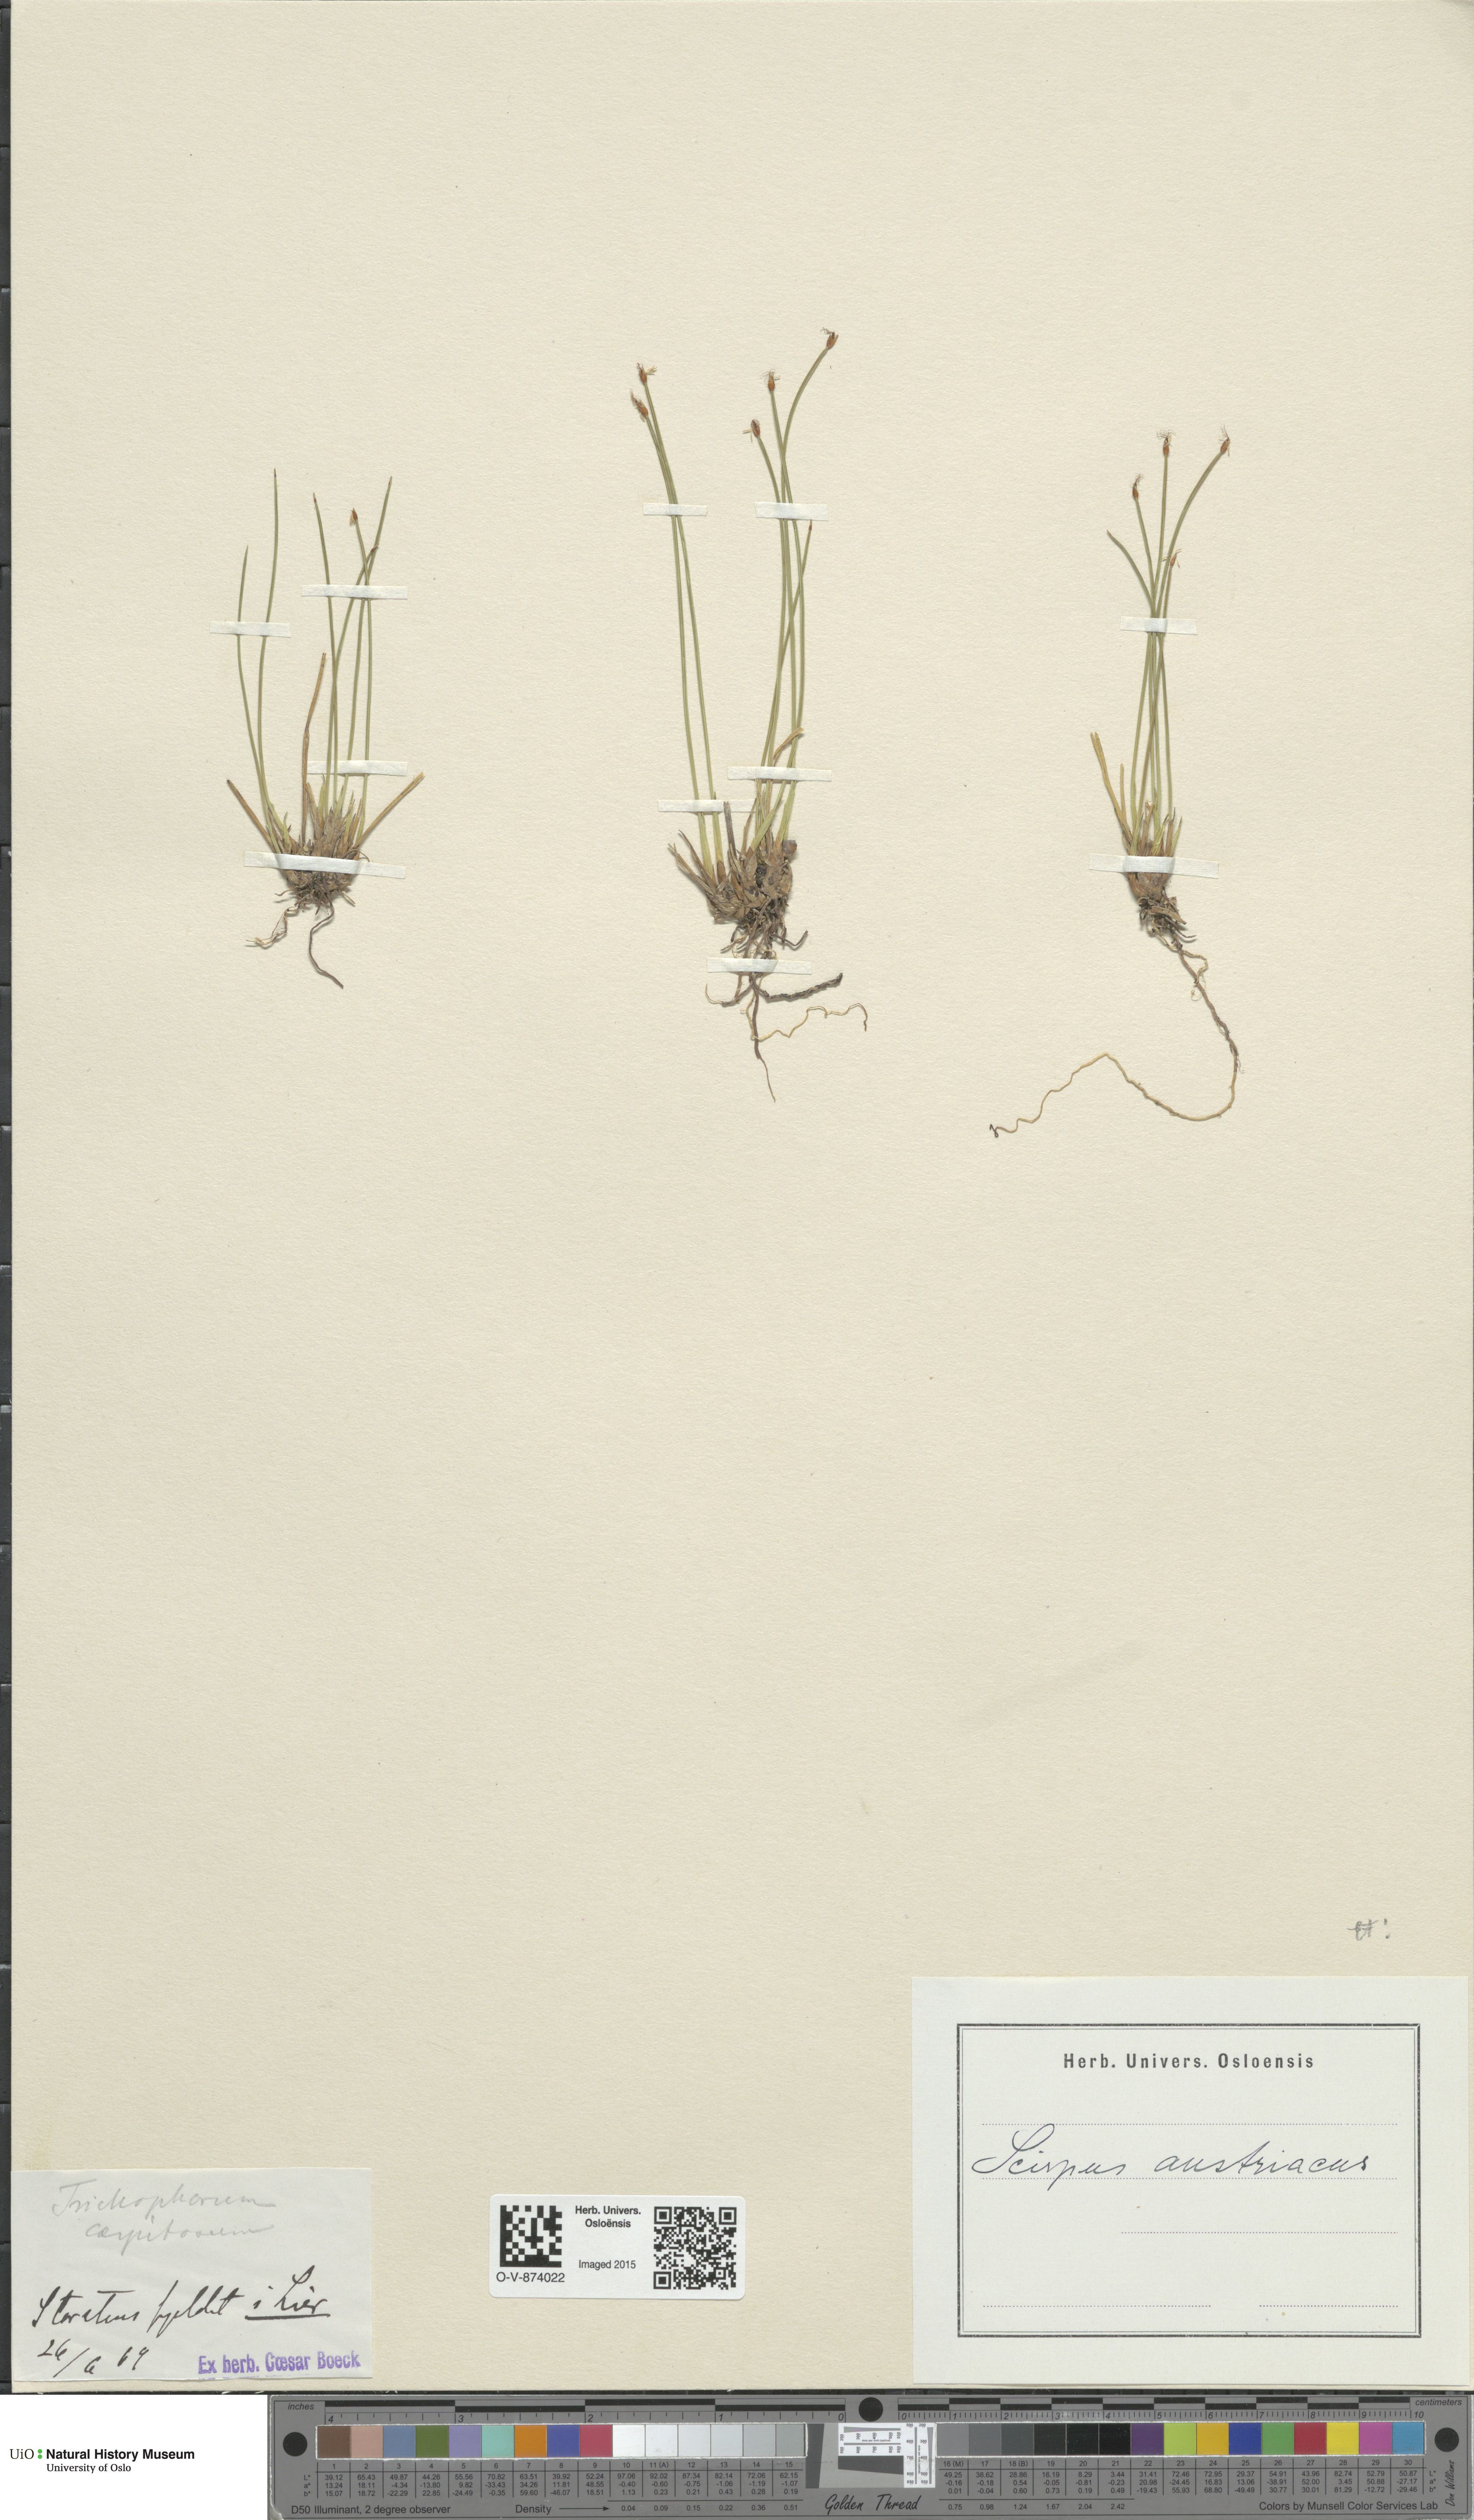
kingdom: Plantae
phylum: Tracheophyta
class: Liliopsida
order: Poales
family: Cyperaceae
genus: Trichophorum
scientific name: Trichophorum cespitosum
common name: Cespitose bulrush
